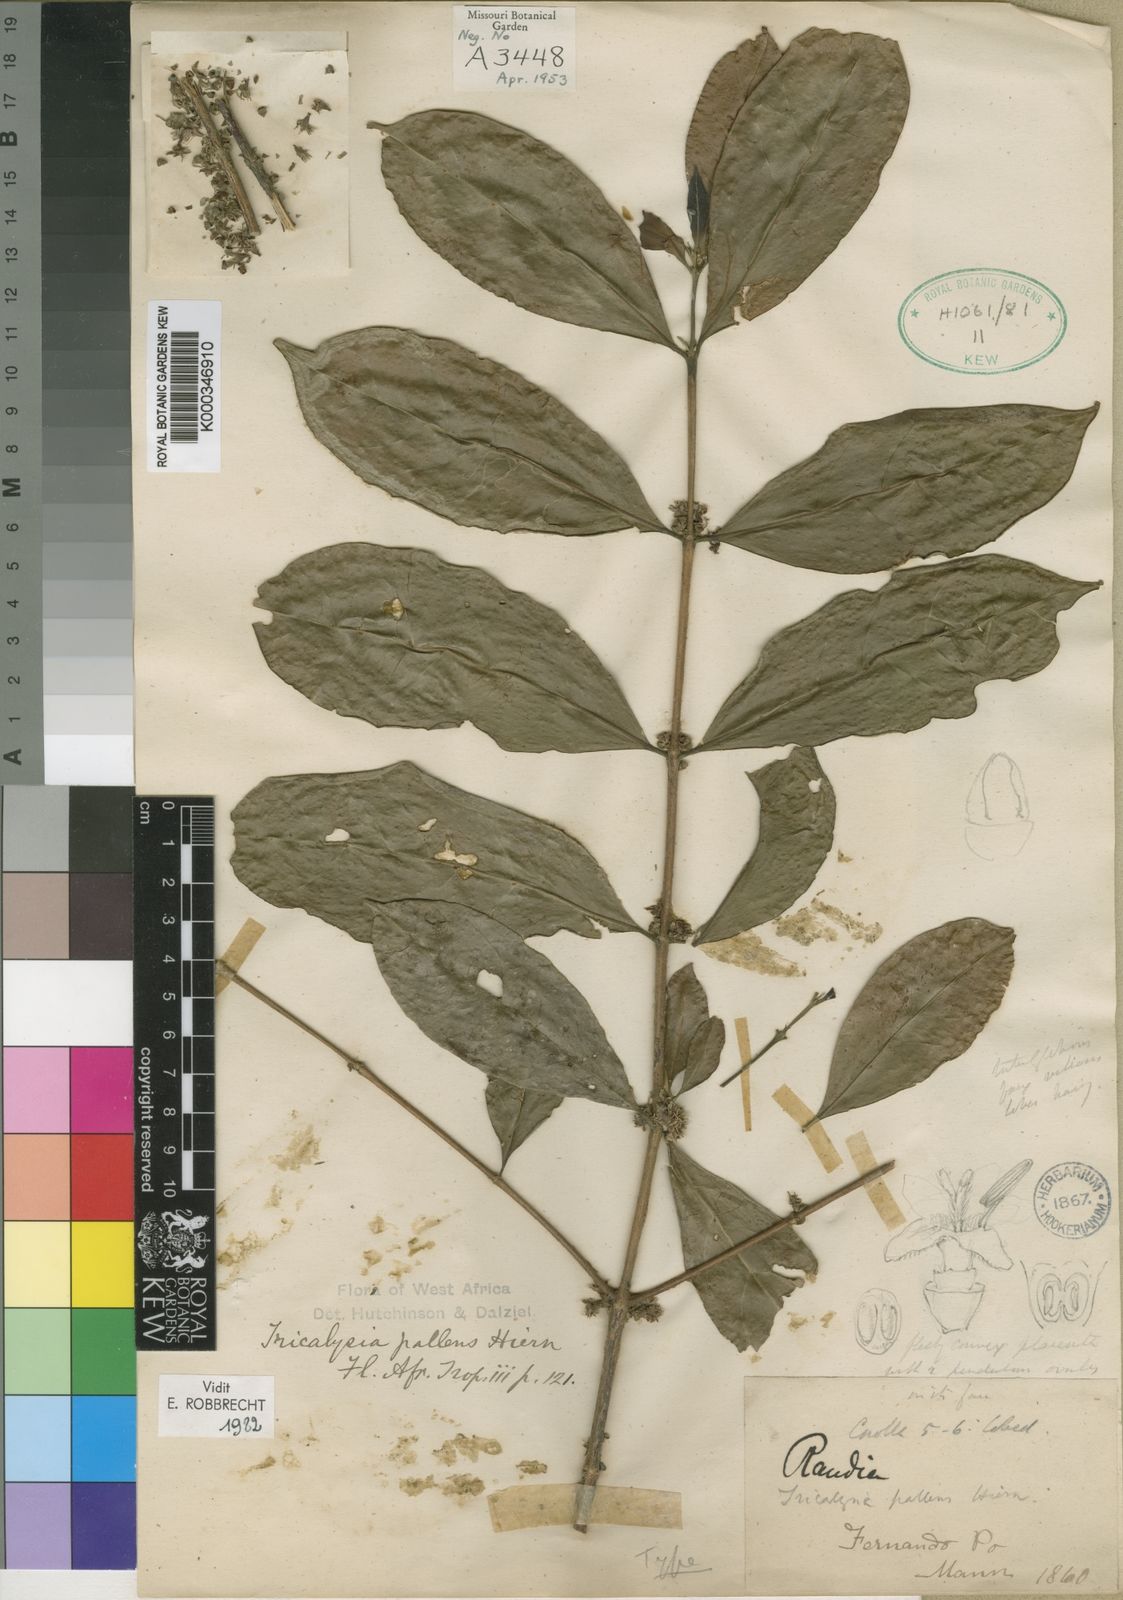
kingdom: Plantae
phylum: Tracheophyta
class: Magnoliopsida
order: Gentianales
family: Rubiaceae
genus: Tricalysia
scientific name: Tricalysia pallens
